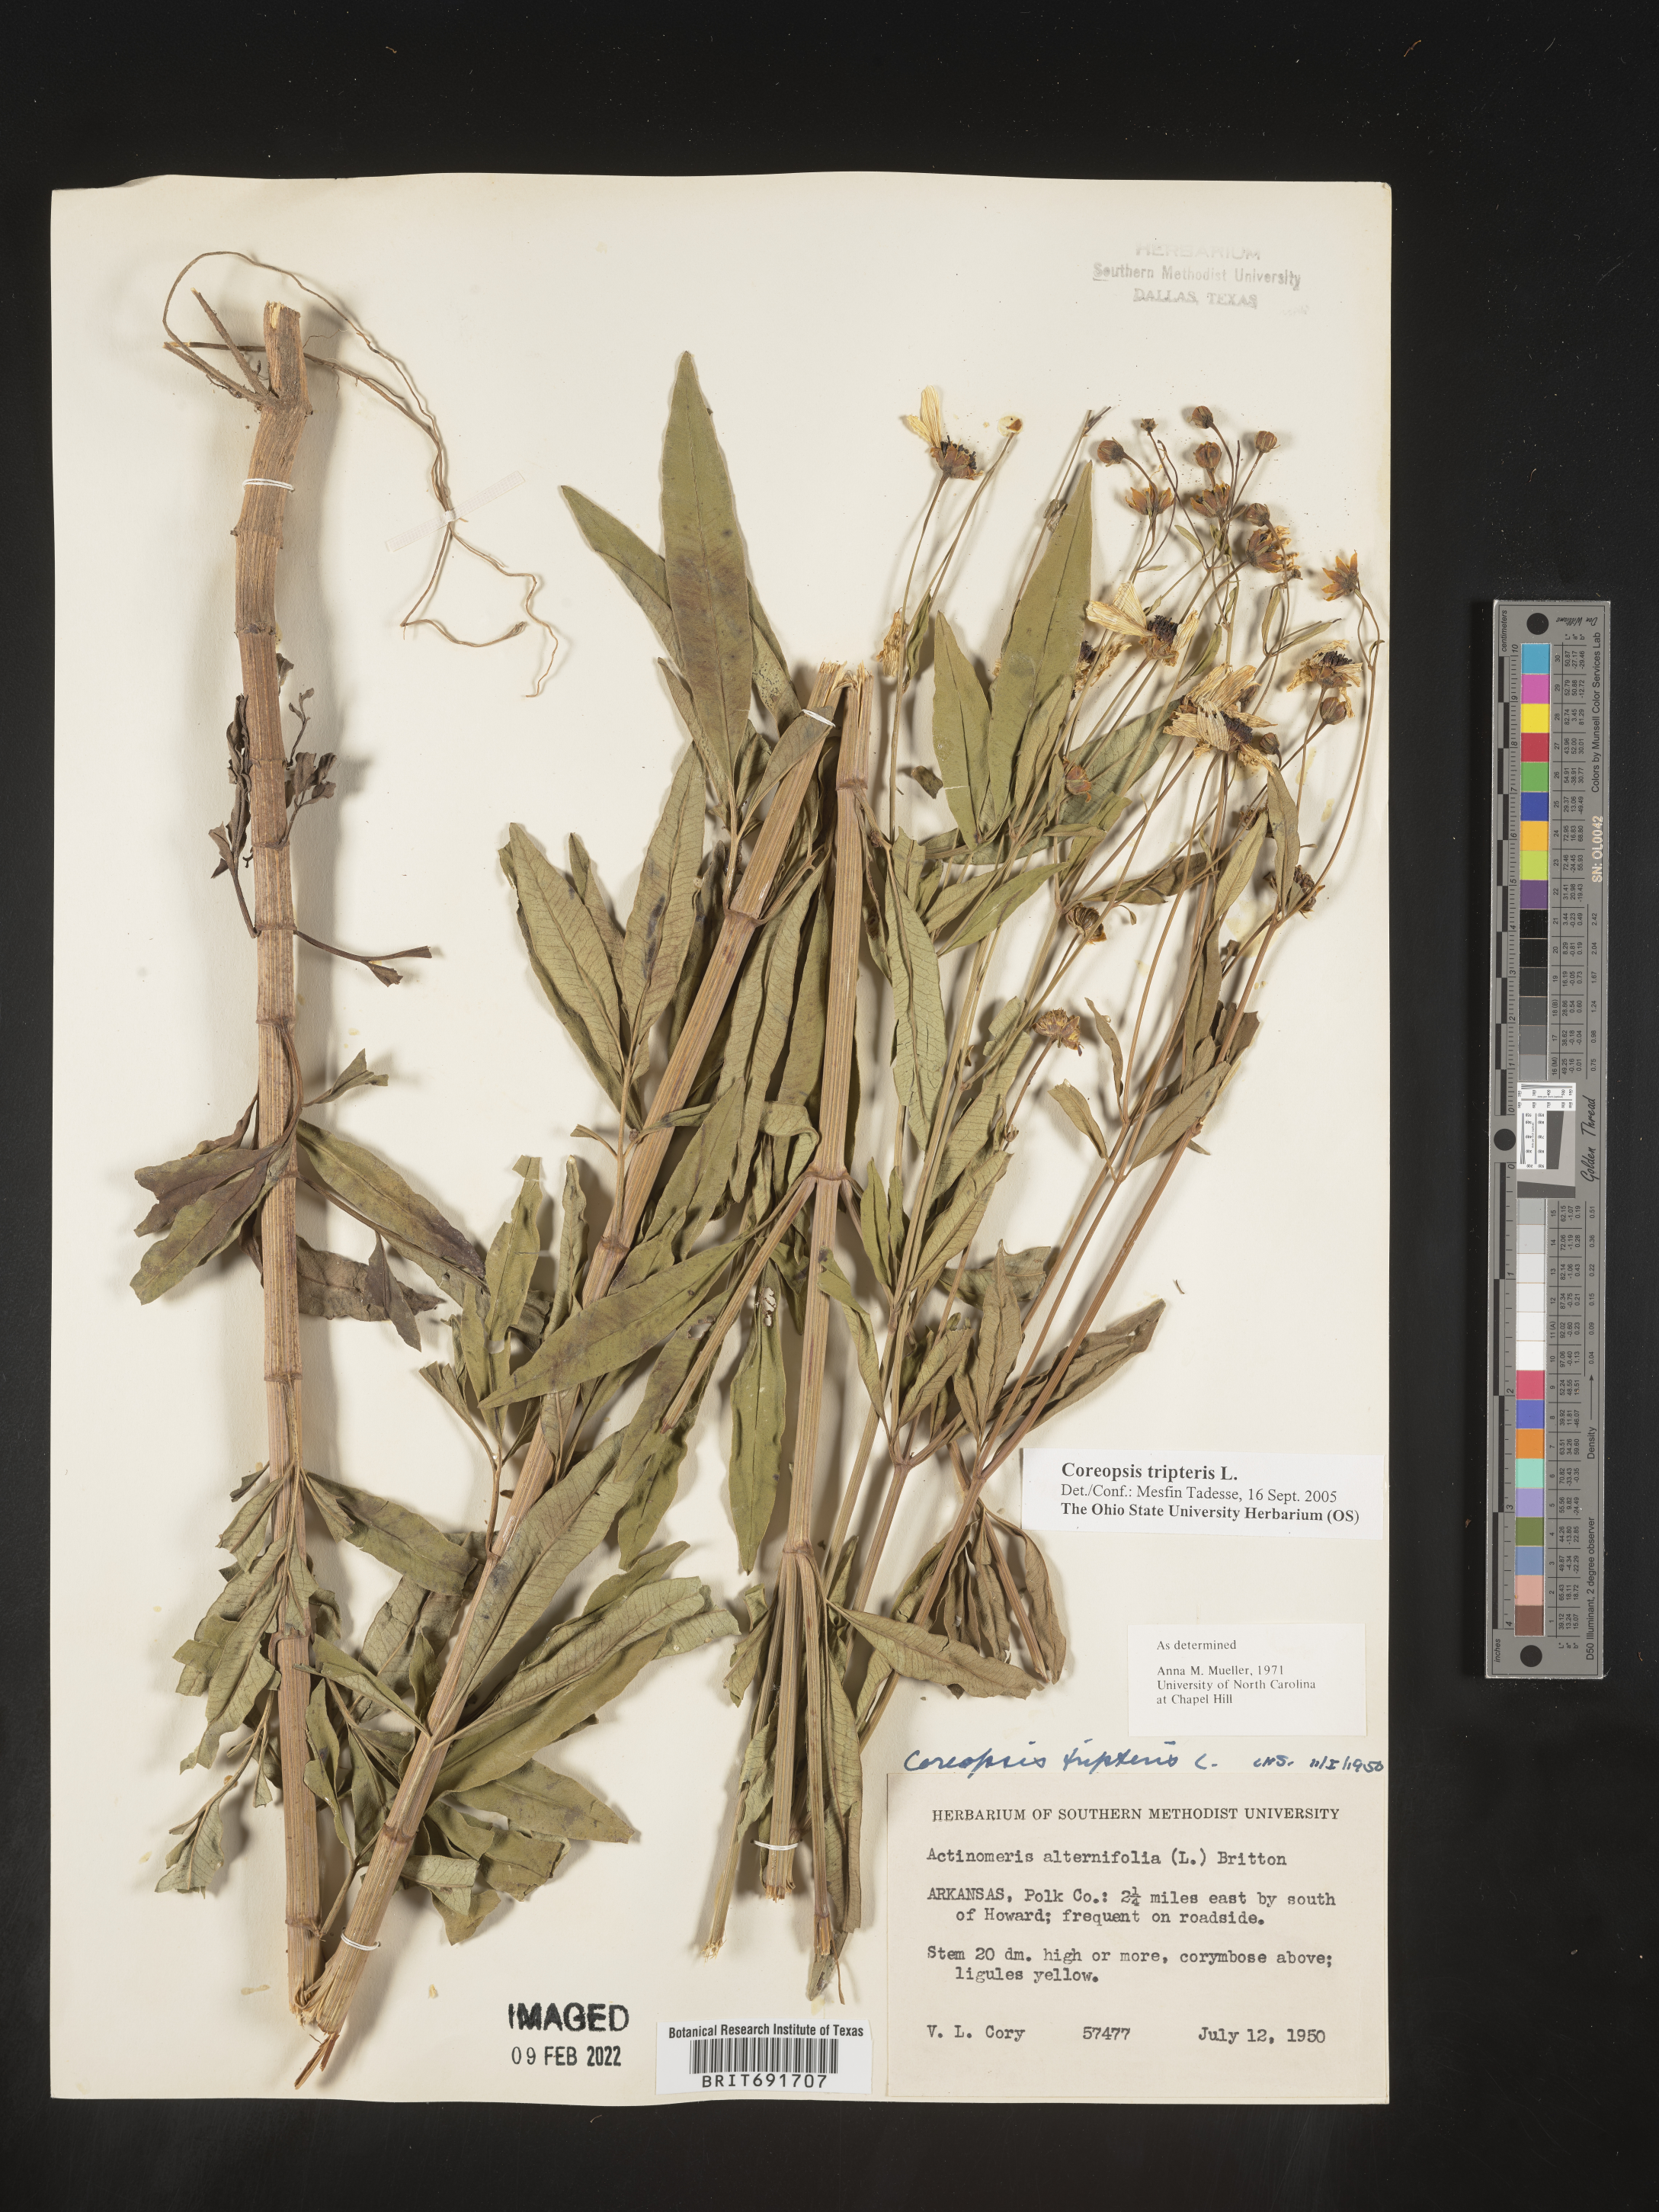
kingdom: Plantae
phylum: Tracheophyta
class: Magnoliopsida
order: Asterales
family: Asteraceae
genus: Coreopsis
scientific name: Coreopsis tripteris
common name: Tall coreopsis
